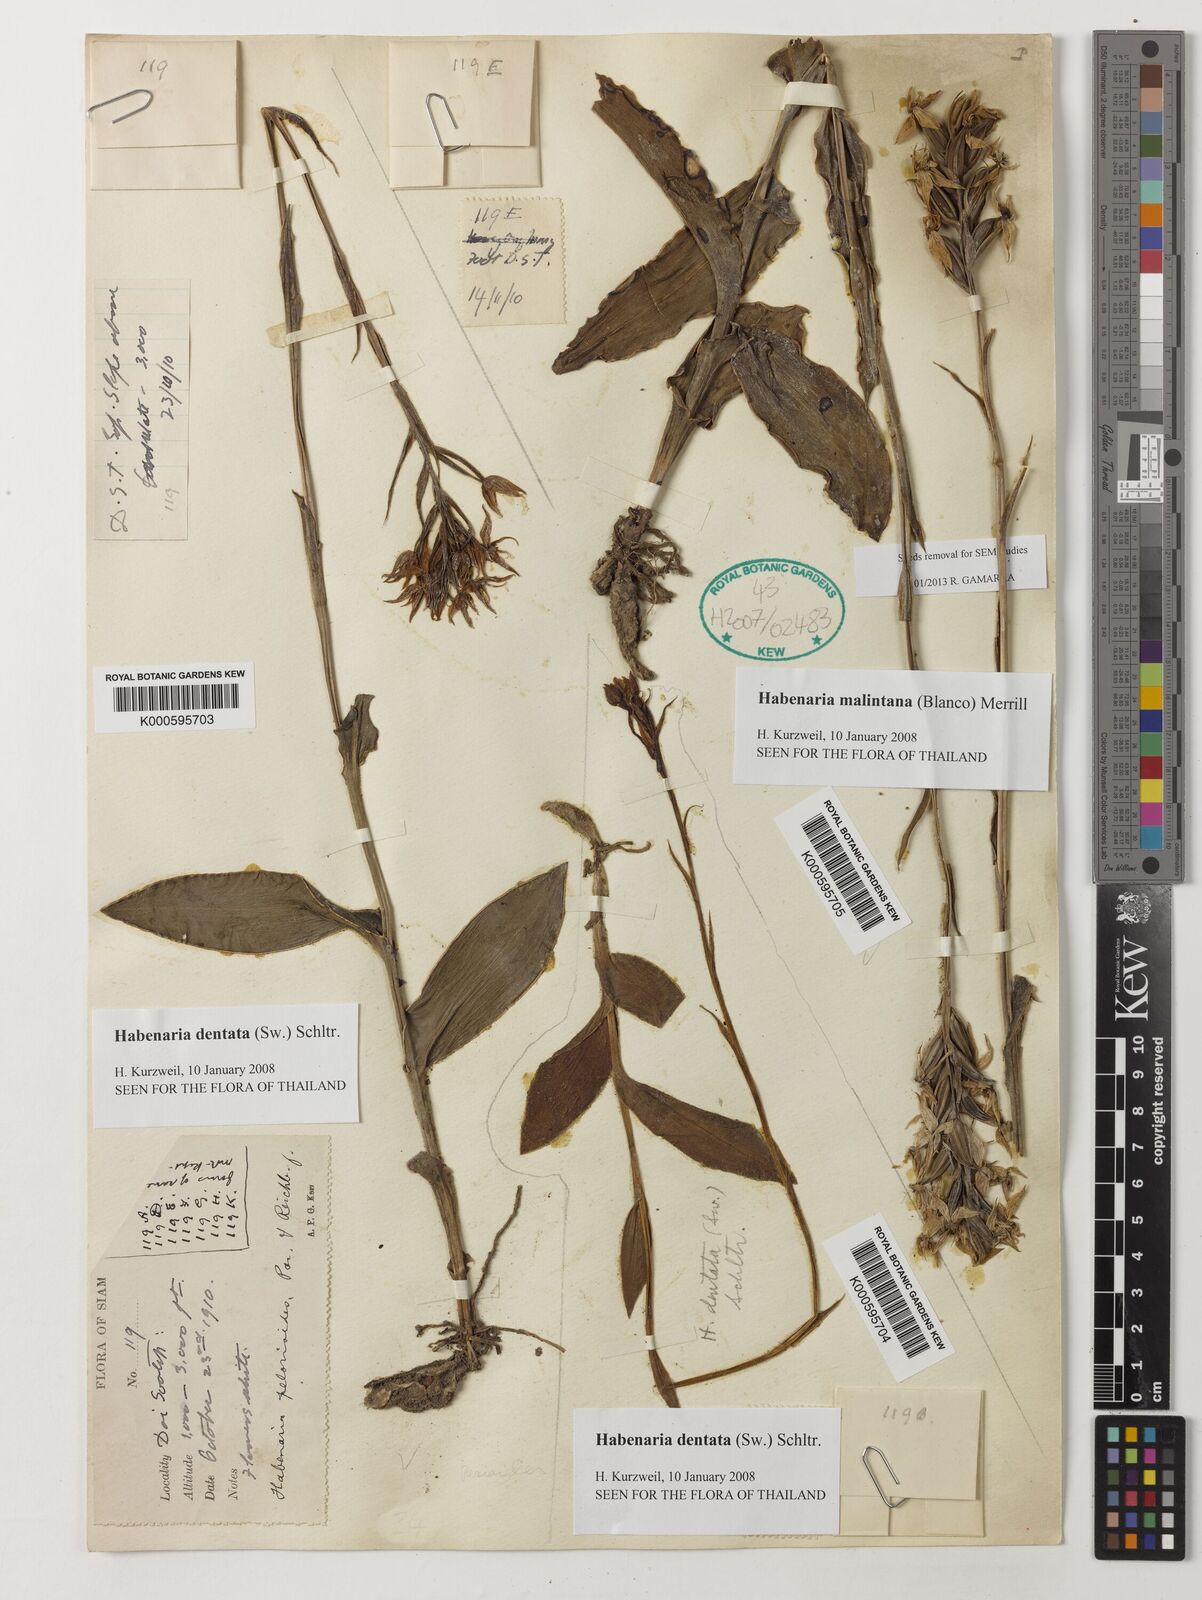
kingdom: Plantae
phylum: Tracheophyta
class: Liliopsida
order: Asparagales
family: Orchidaceae
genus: Habenaria
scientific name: Habenaria dentata
